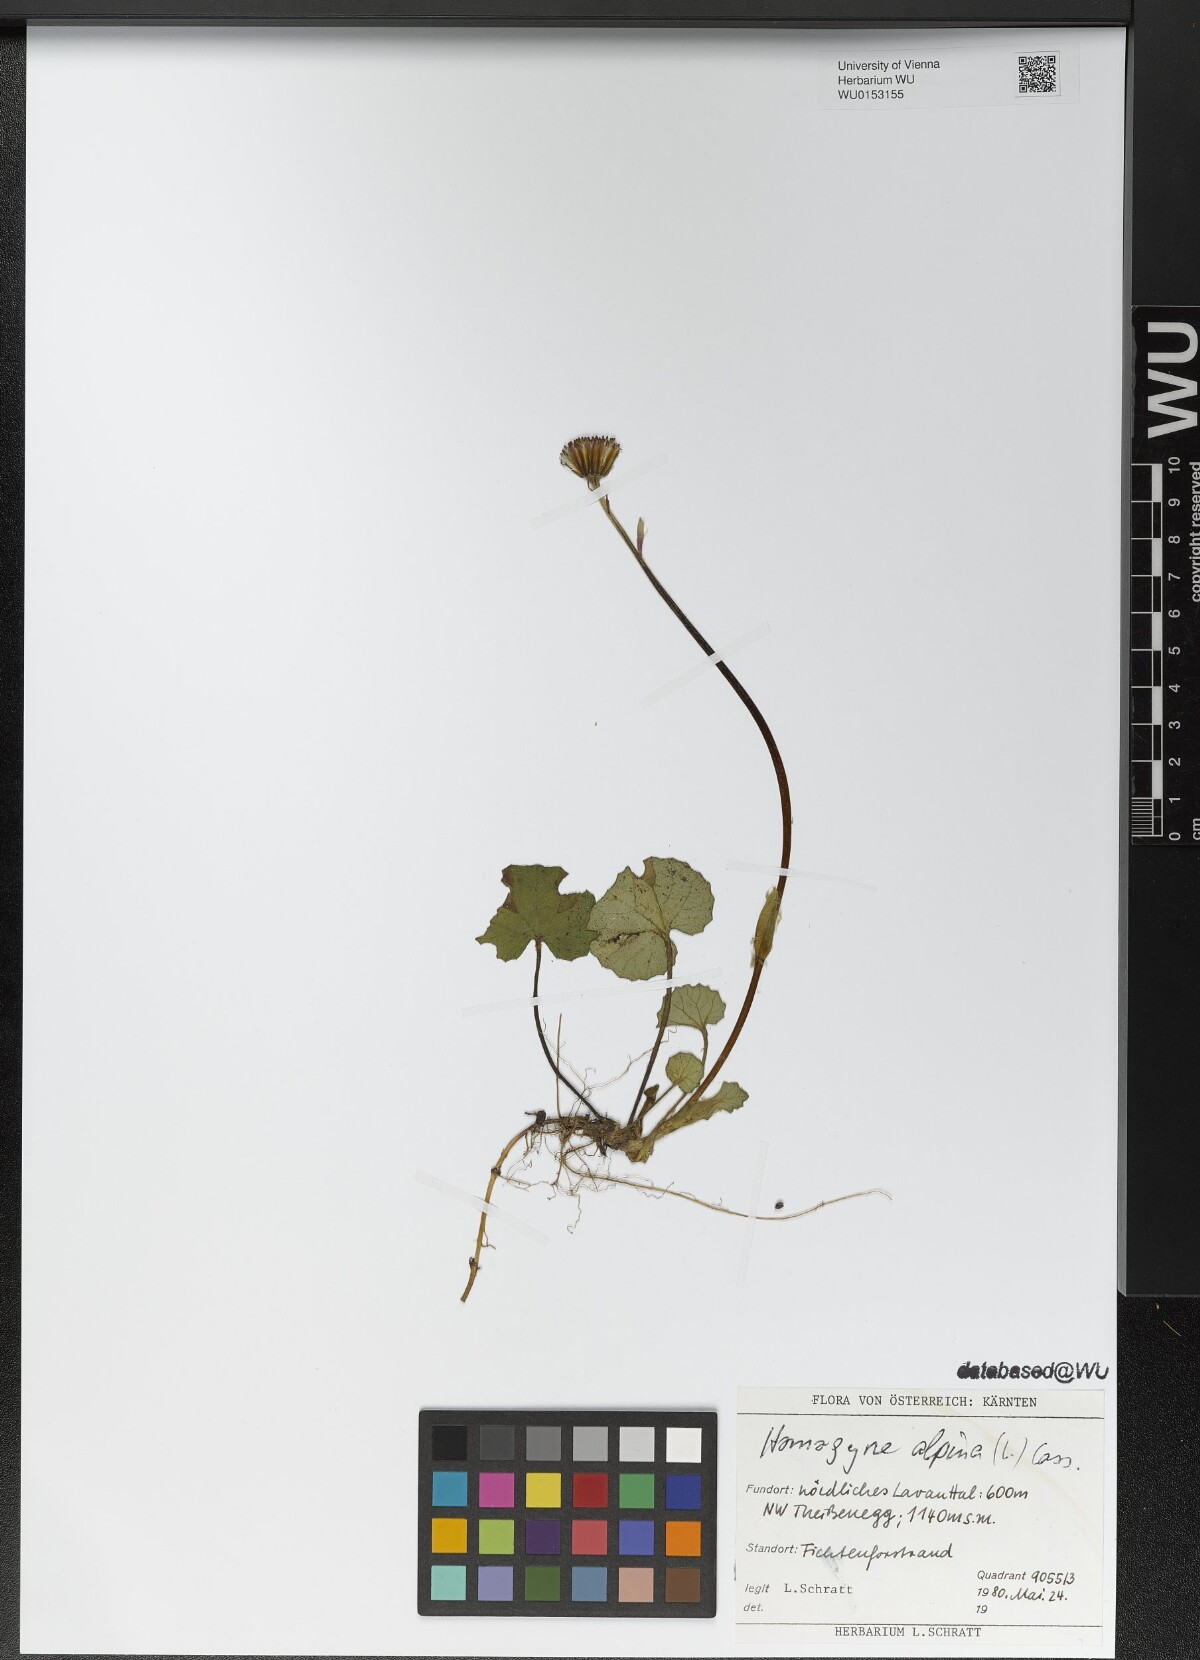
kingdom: Plantae
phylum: Tracheophyta
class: Magnoliopsida
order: Asterales
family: Asteraceae
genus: Homogyne
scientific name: Homogyne alpina
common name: Purple colt's-foot
